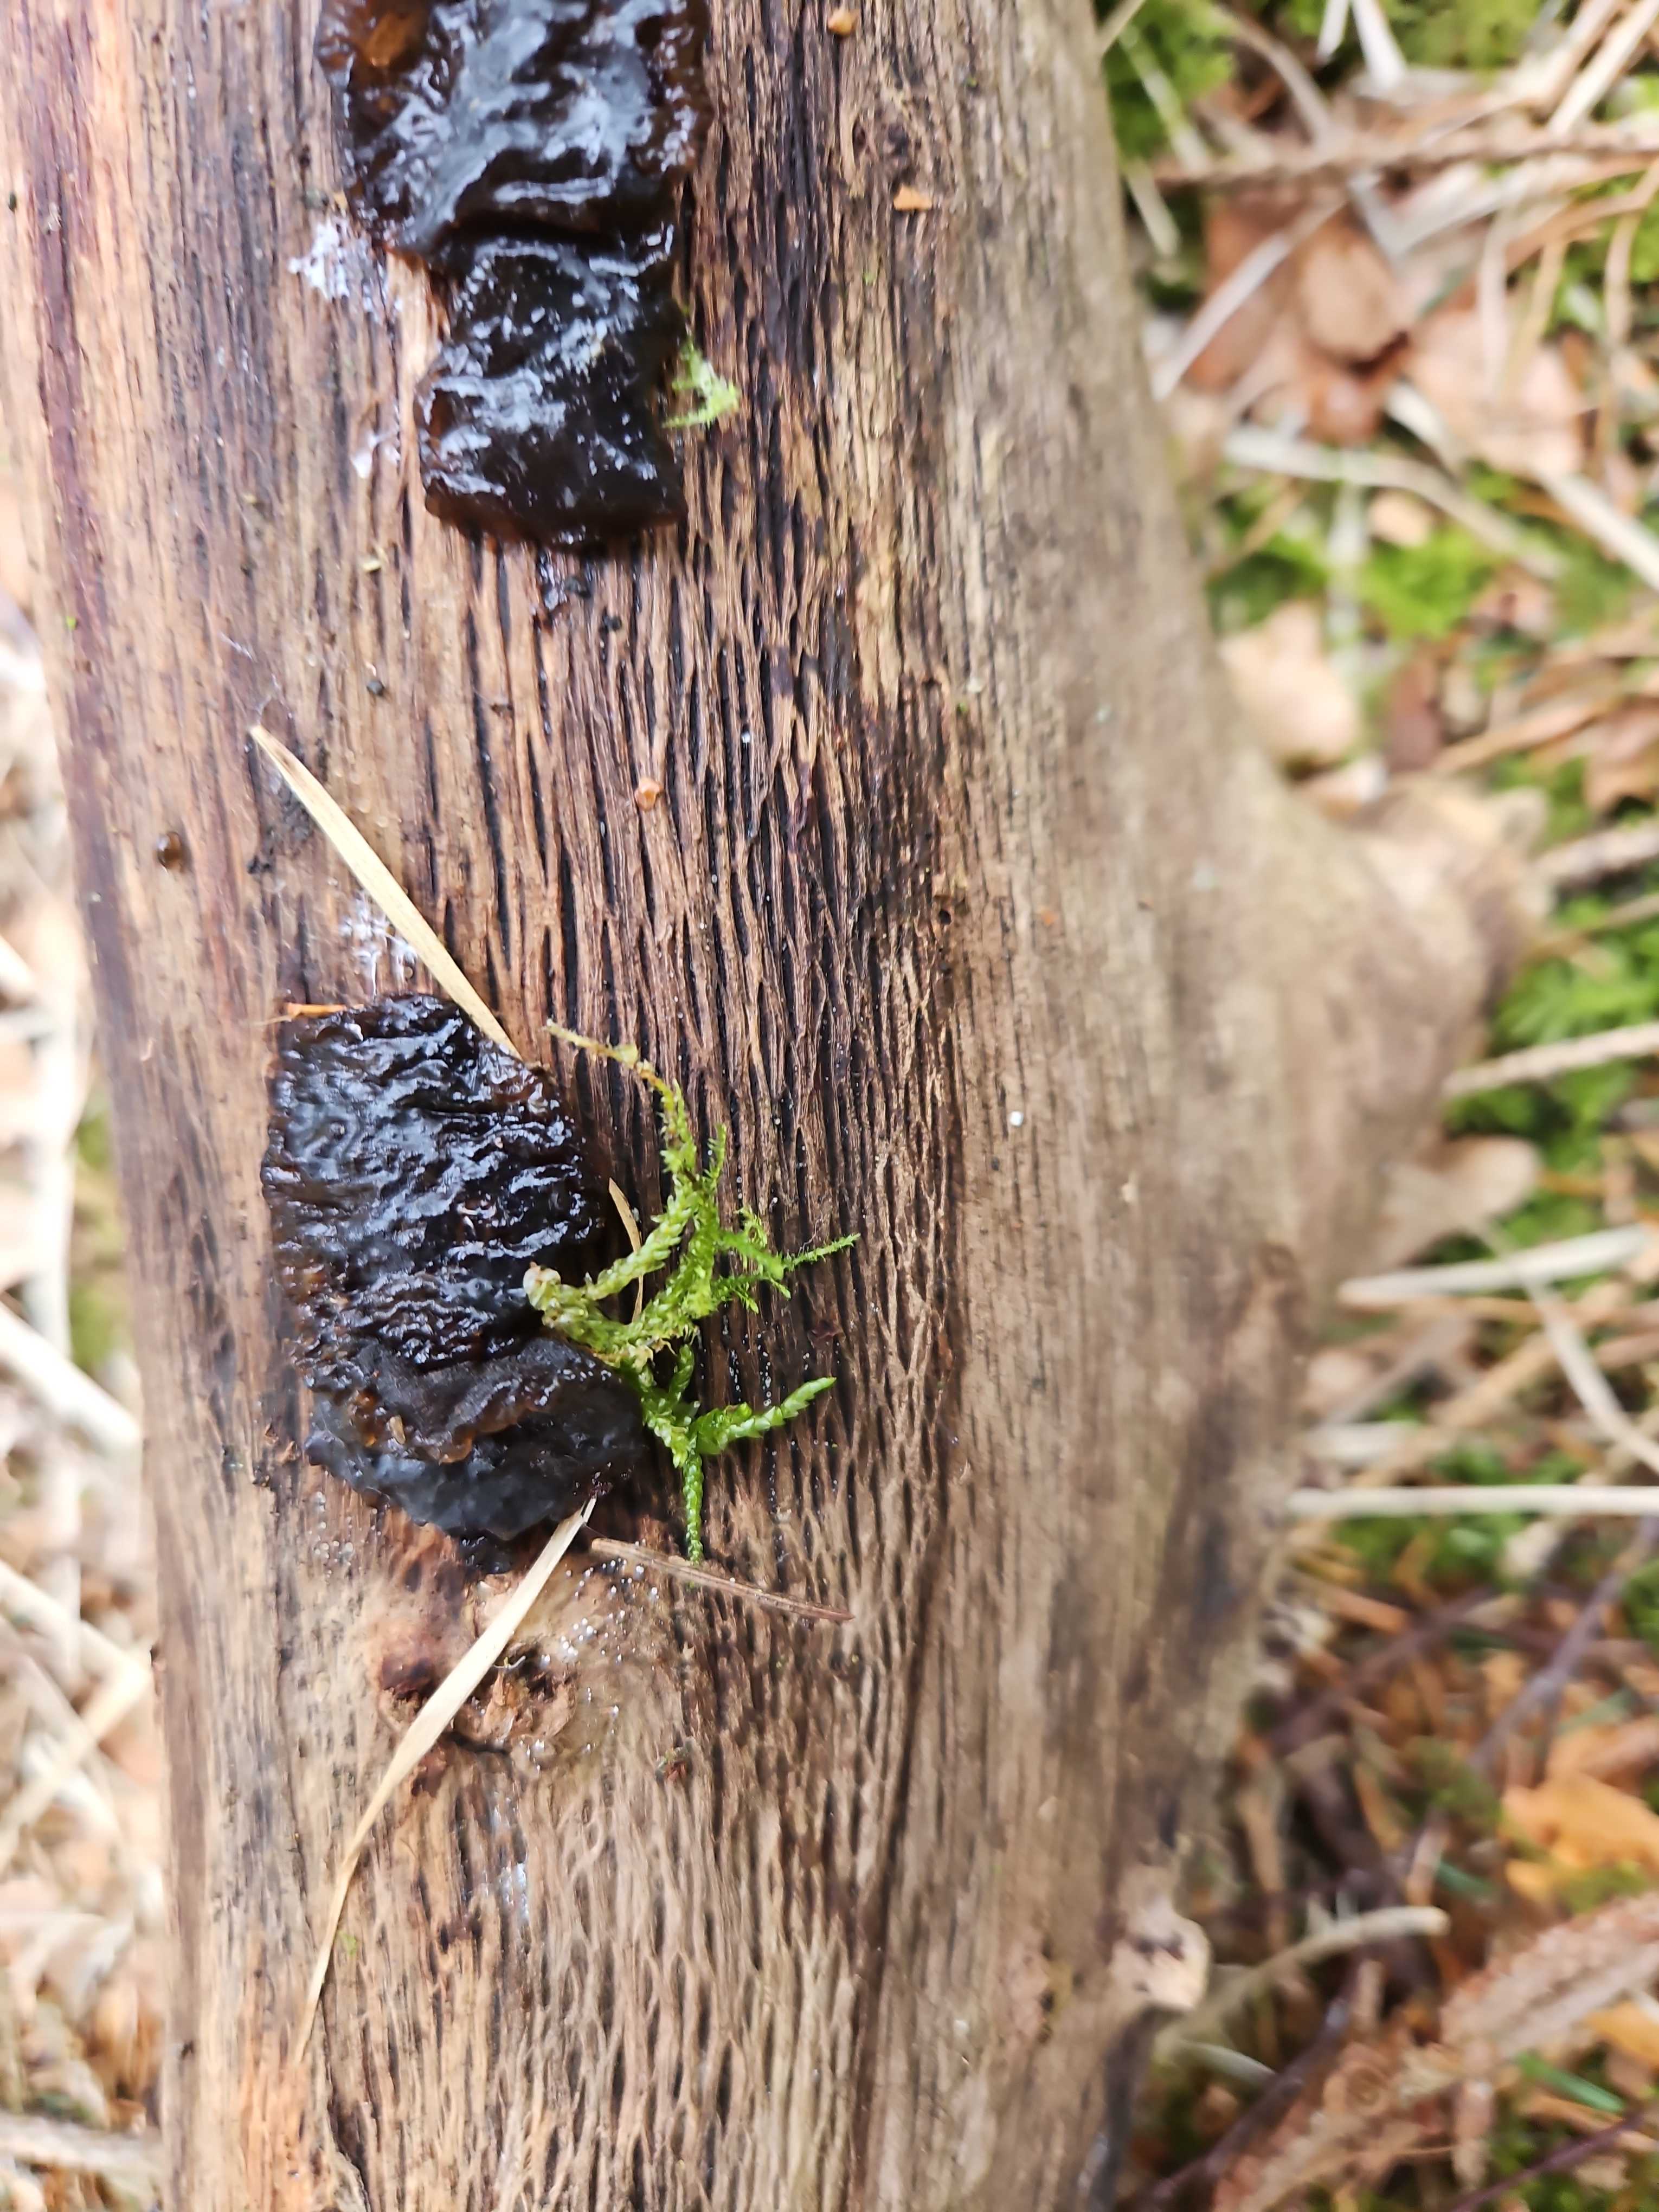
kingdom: Fungi
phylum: Basidiomycota
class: Agaricomycetes
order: Auriculariales
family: Auriculariaceae
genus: Exidia
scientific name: Exidia glandulosa
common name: ege-bævretop
